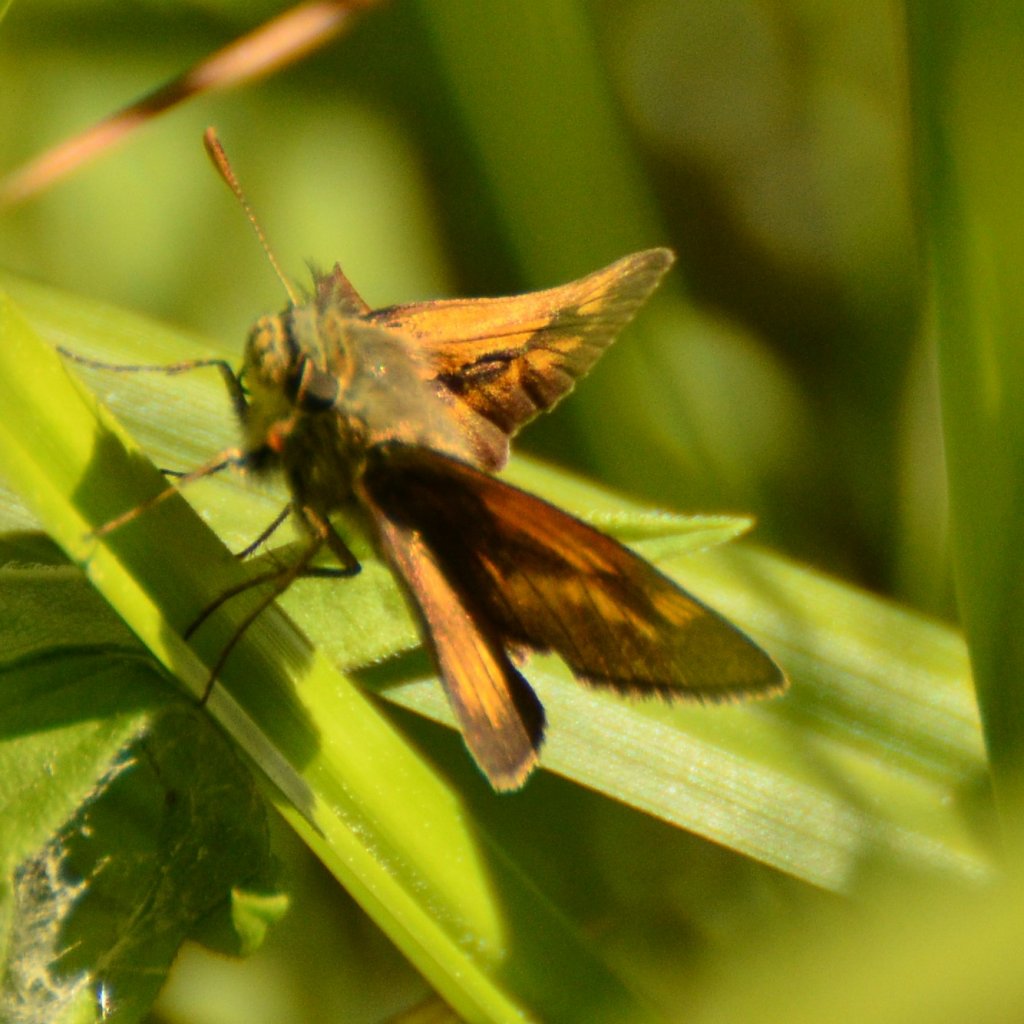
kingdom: Animalia
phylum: Arthropoda
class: Insecta
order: Lepidoptera
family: Hesperiidae
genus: Polites
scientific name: Polites themistocles
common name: Tawny-edged Skipper
